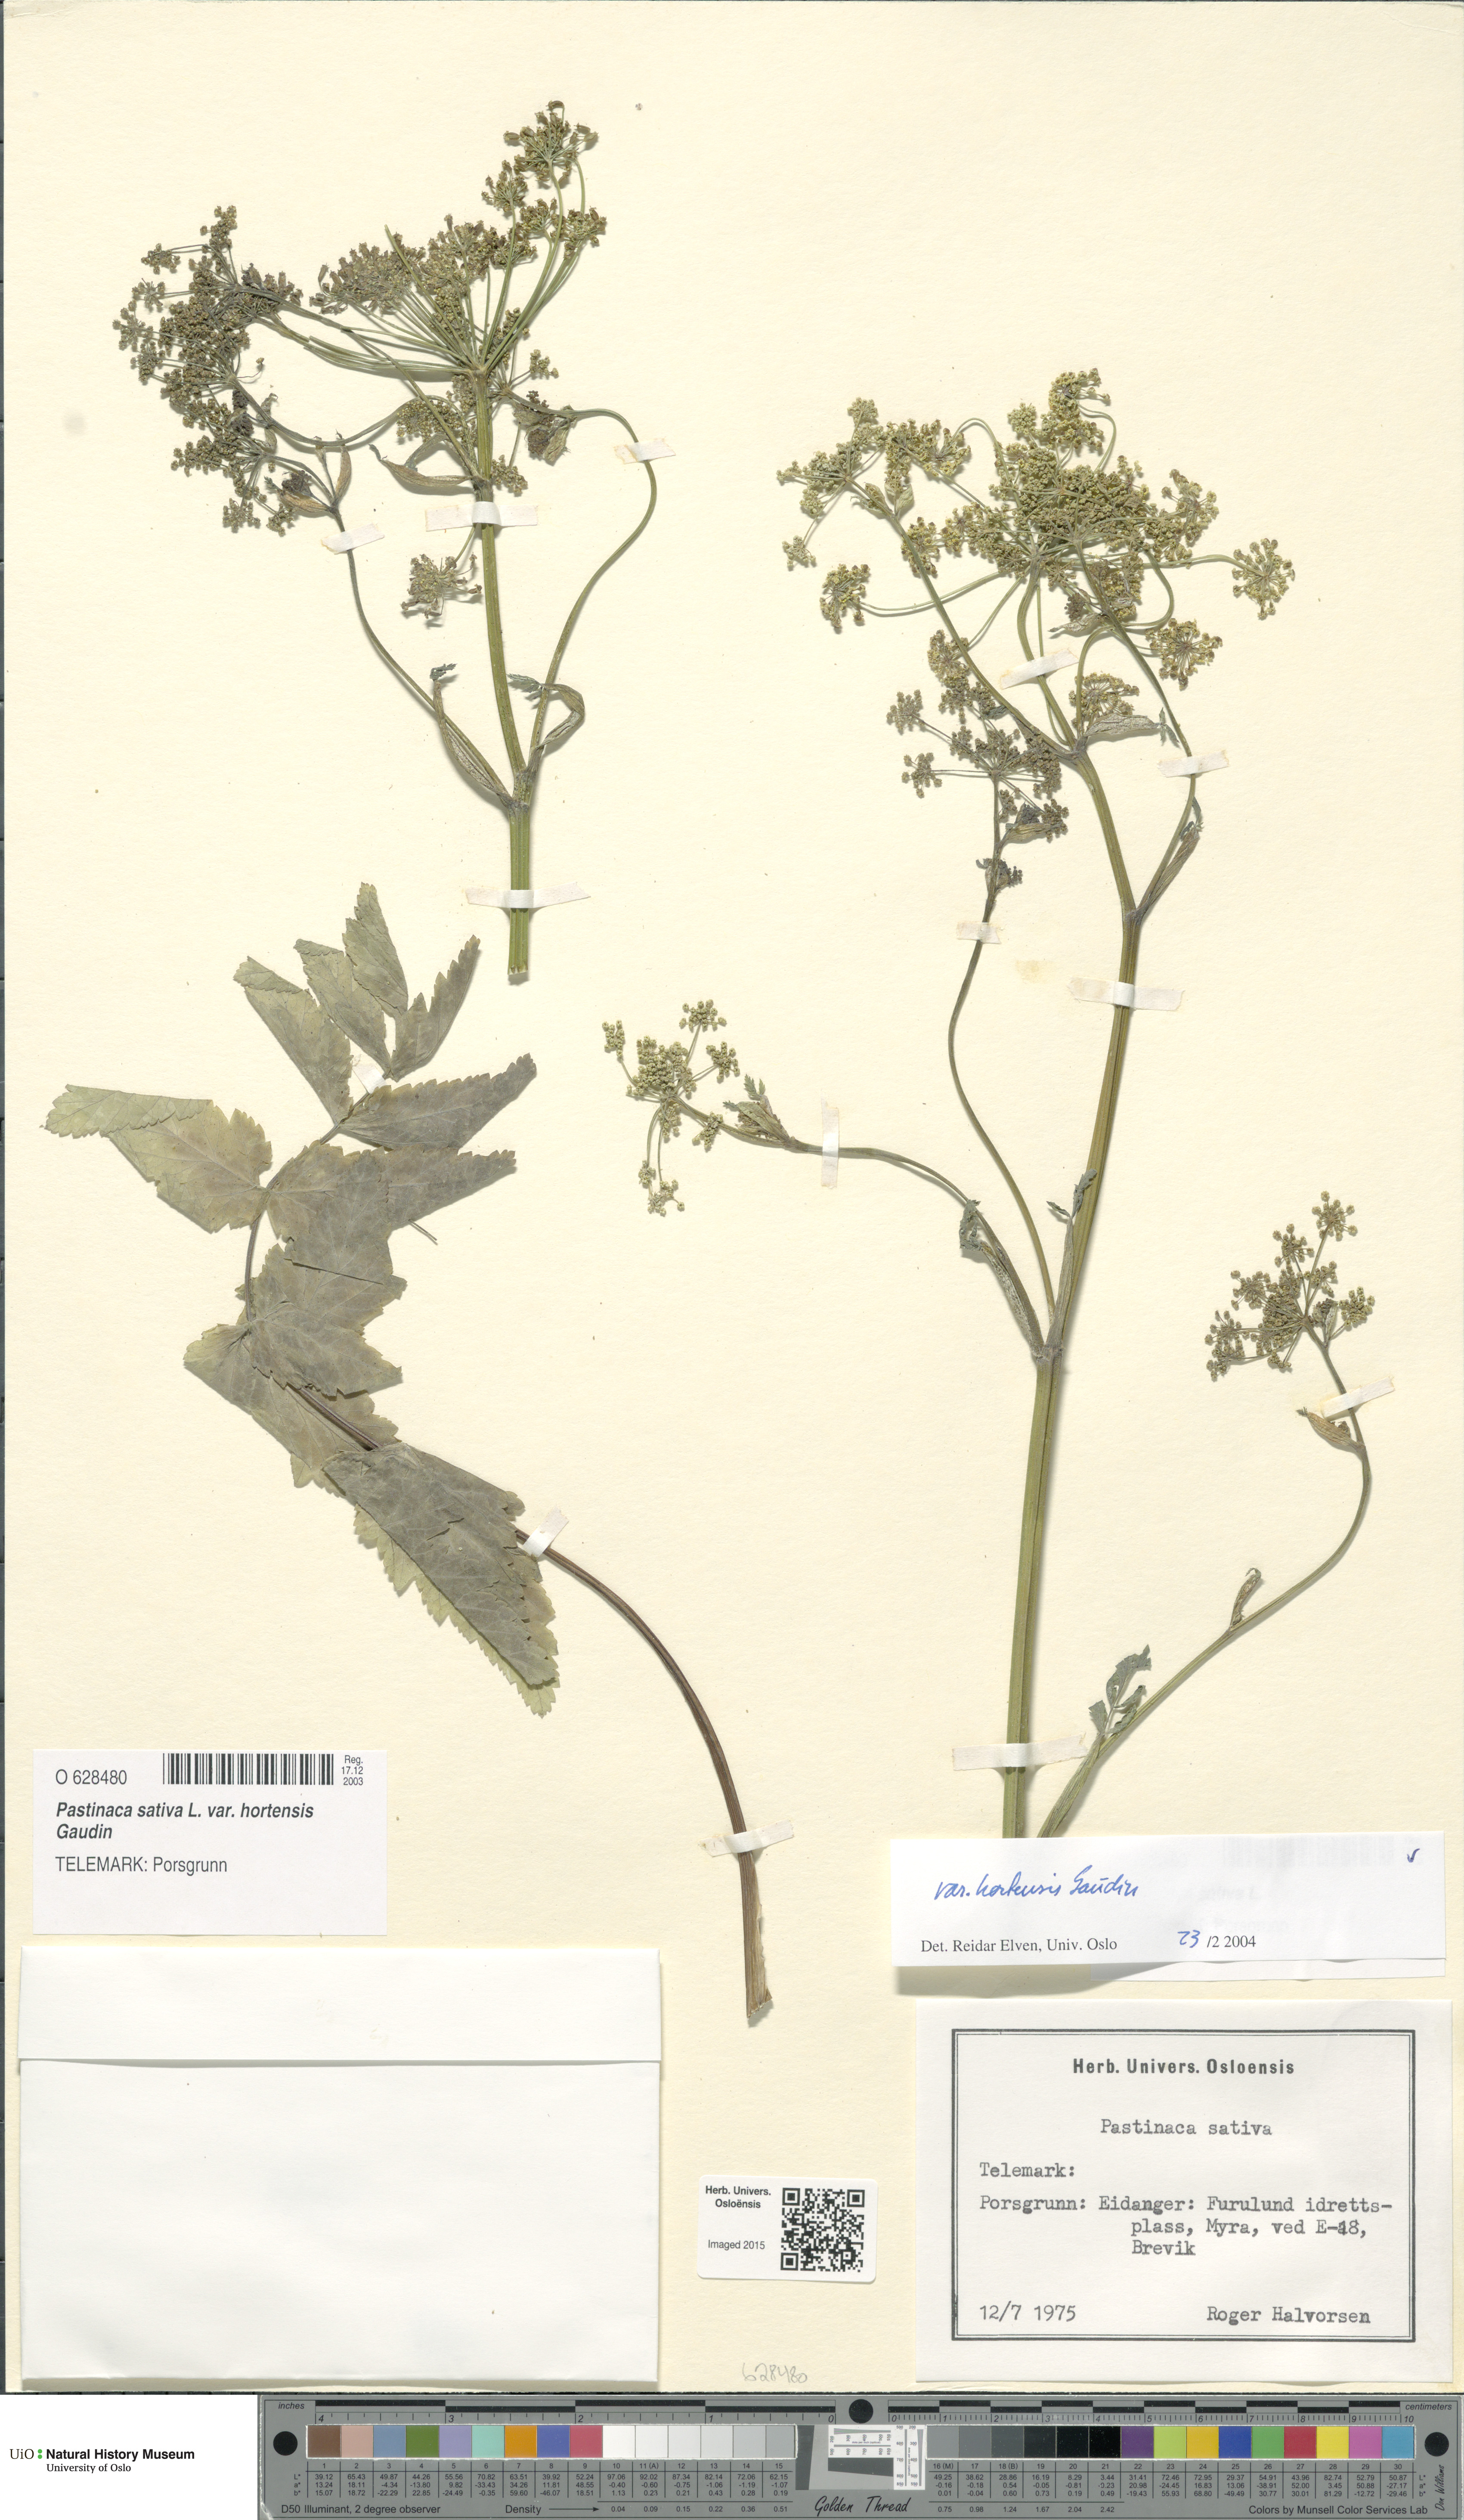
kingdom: Plantae
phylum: Tracheophyta
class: Magnoliopsida
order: Apiales
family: Apiaceae
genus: Pastinaca
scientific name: Pastinaca sativa
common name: Wild parsnip
